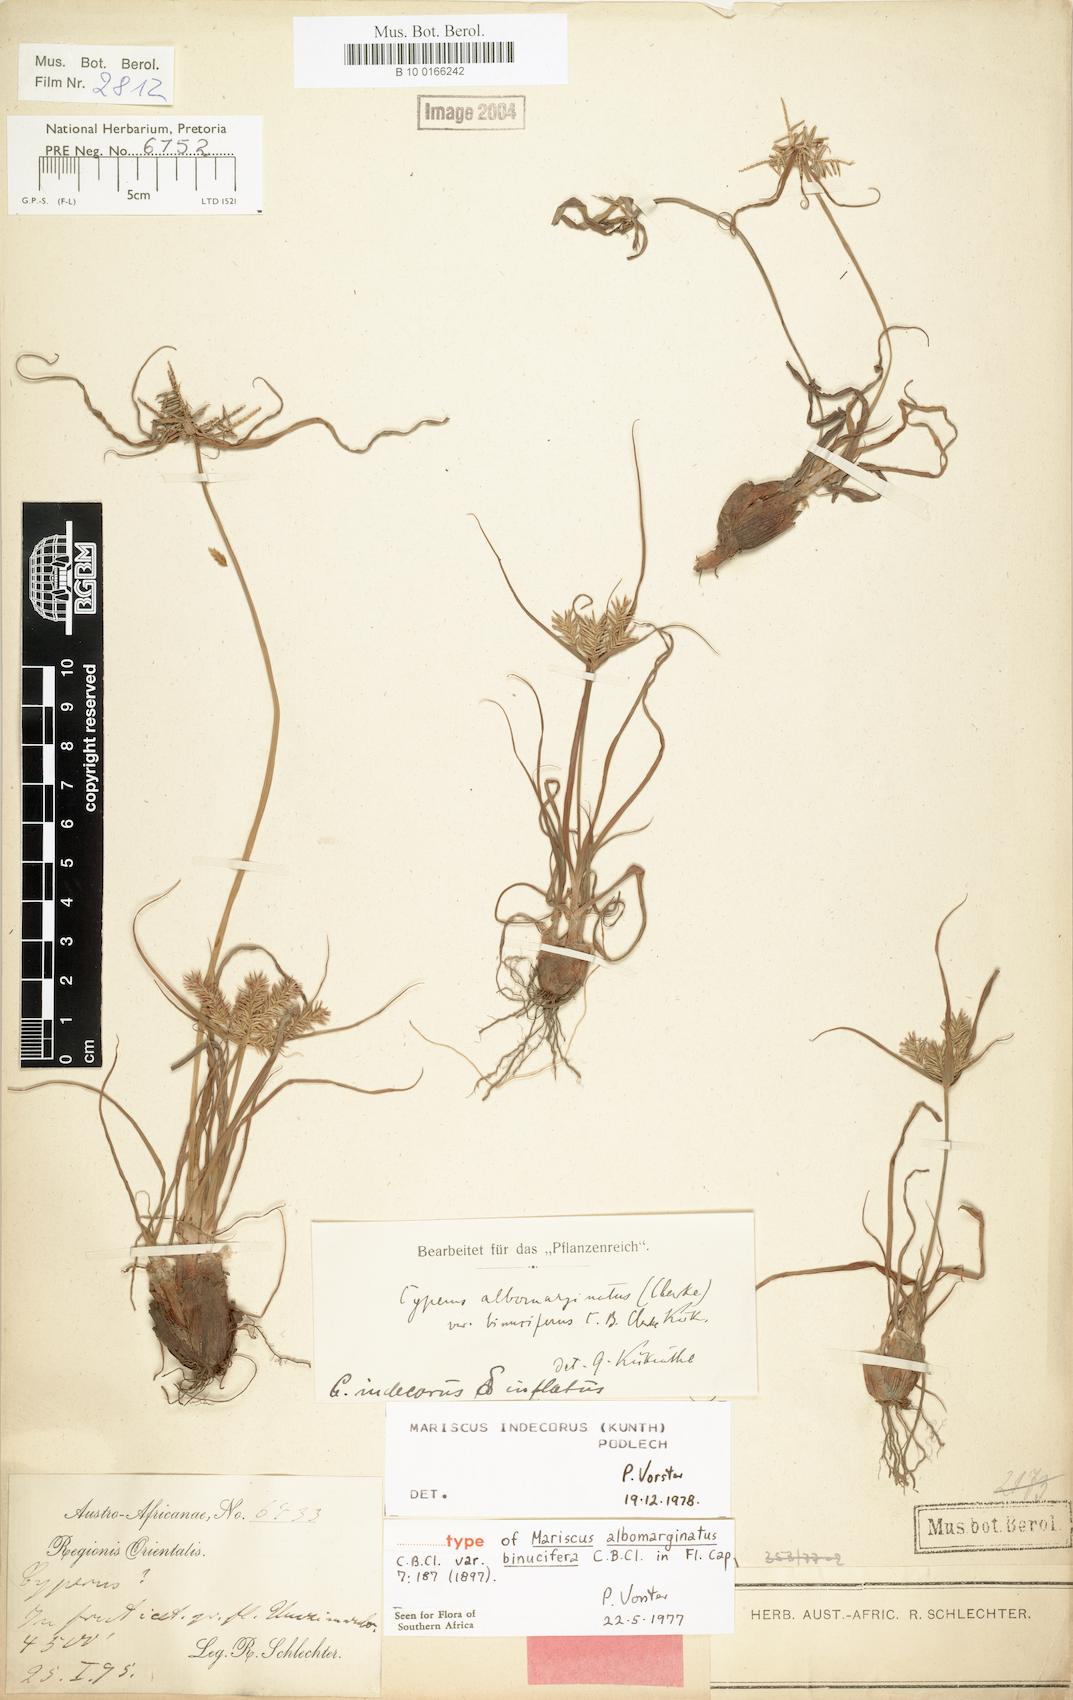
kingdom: Plantae
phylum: Tracheophyta
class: Liliopsida
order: Poales
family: Cyperaceae
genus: Cyperus
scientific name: Cyperus indecorus
